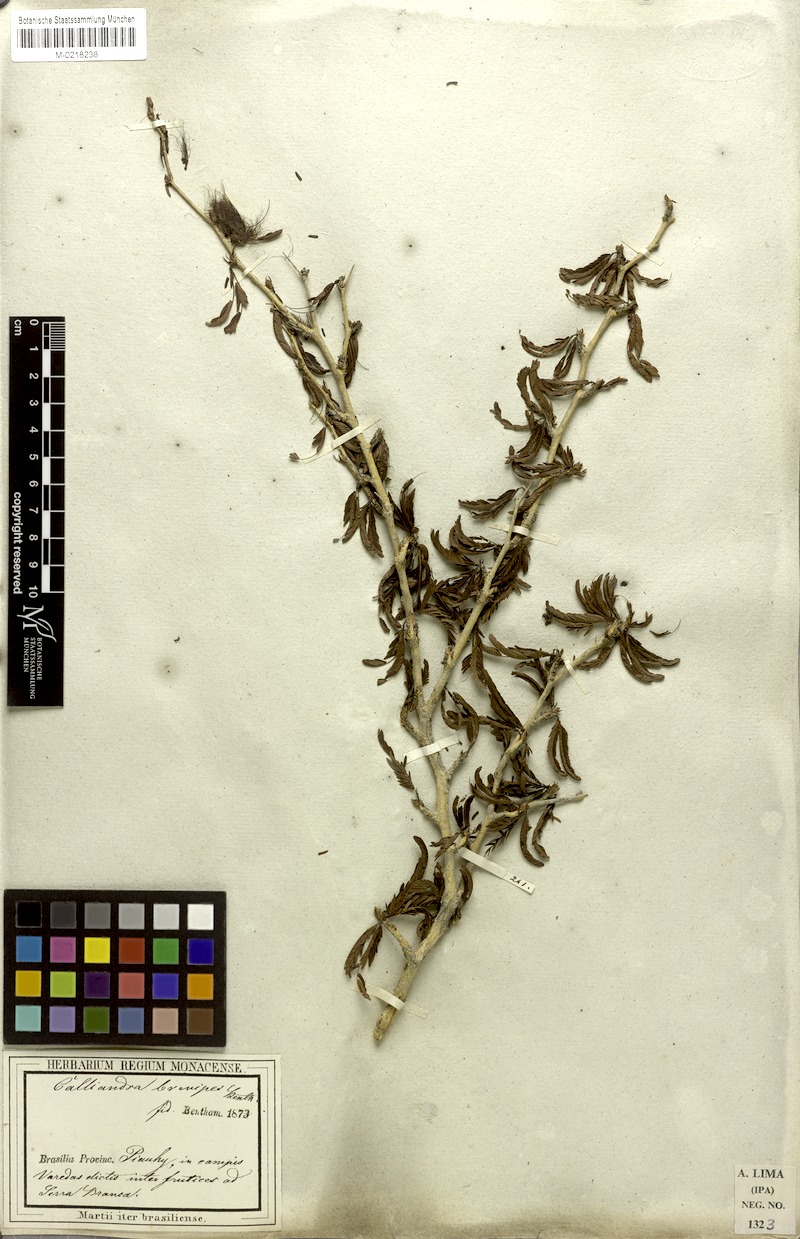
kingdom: Plantae
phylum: Tracheophyta
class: Magnoliopsida
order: Fabales
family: Fabaceae
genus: Calliandra
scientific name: Calliandra selloi
